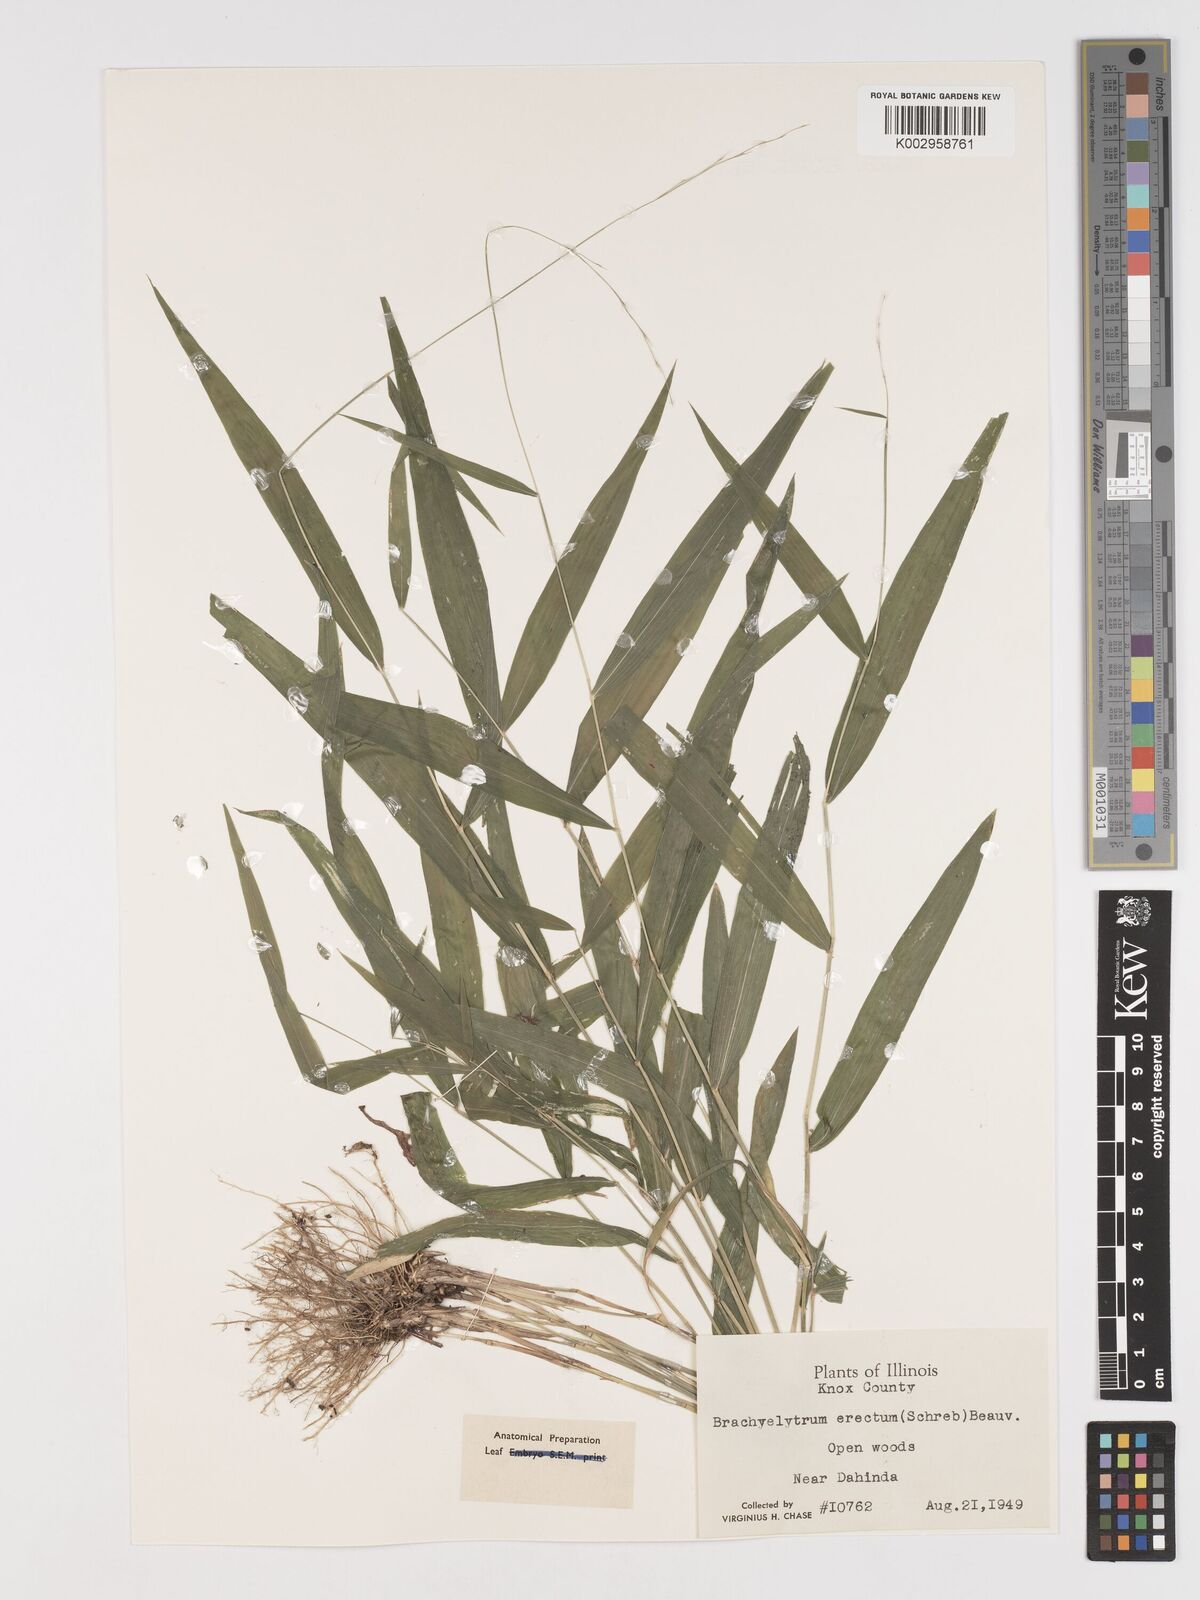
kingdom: Plantae
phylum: Tracheophyta
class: Liliopsida
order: Poales
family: Poaceae
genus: Brachyelytrum
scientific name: Brachyelytrum erectum
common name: Bearded shorthusk
